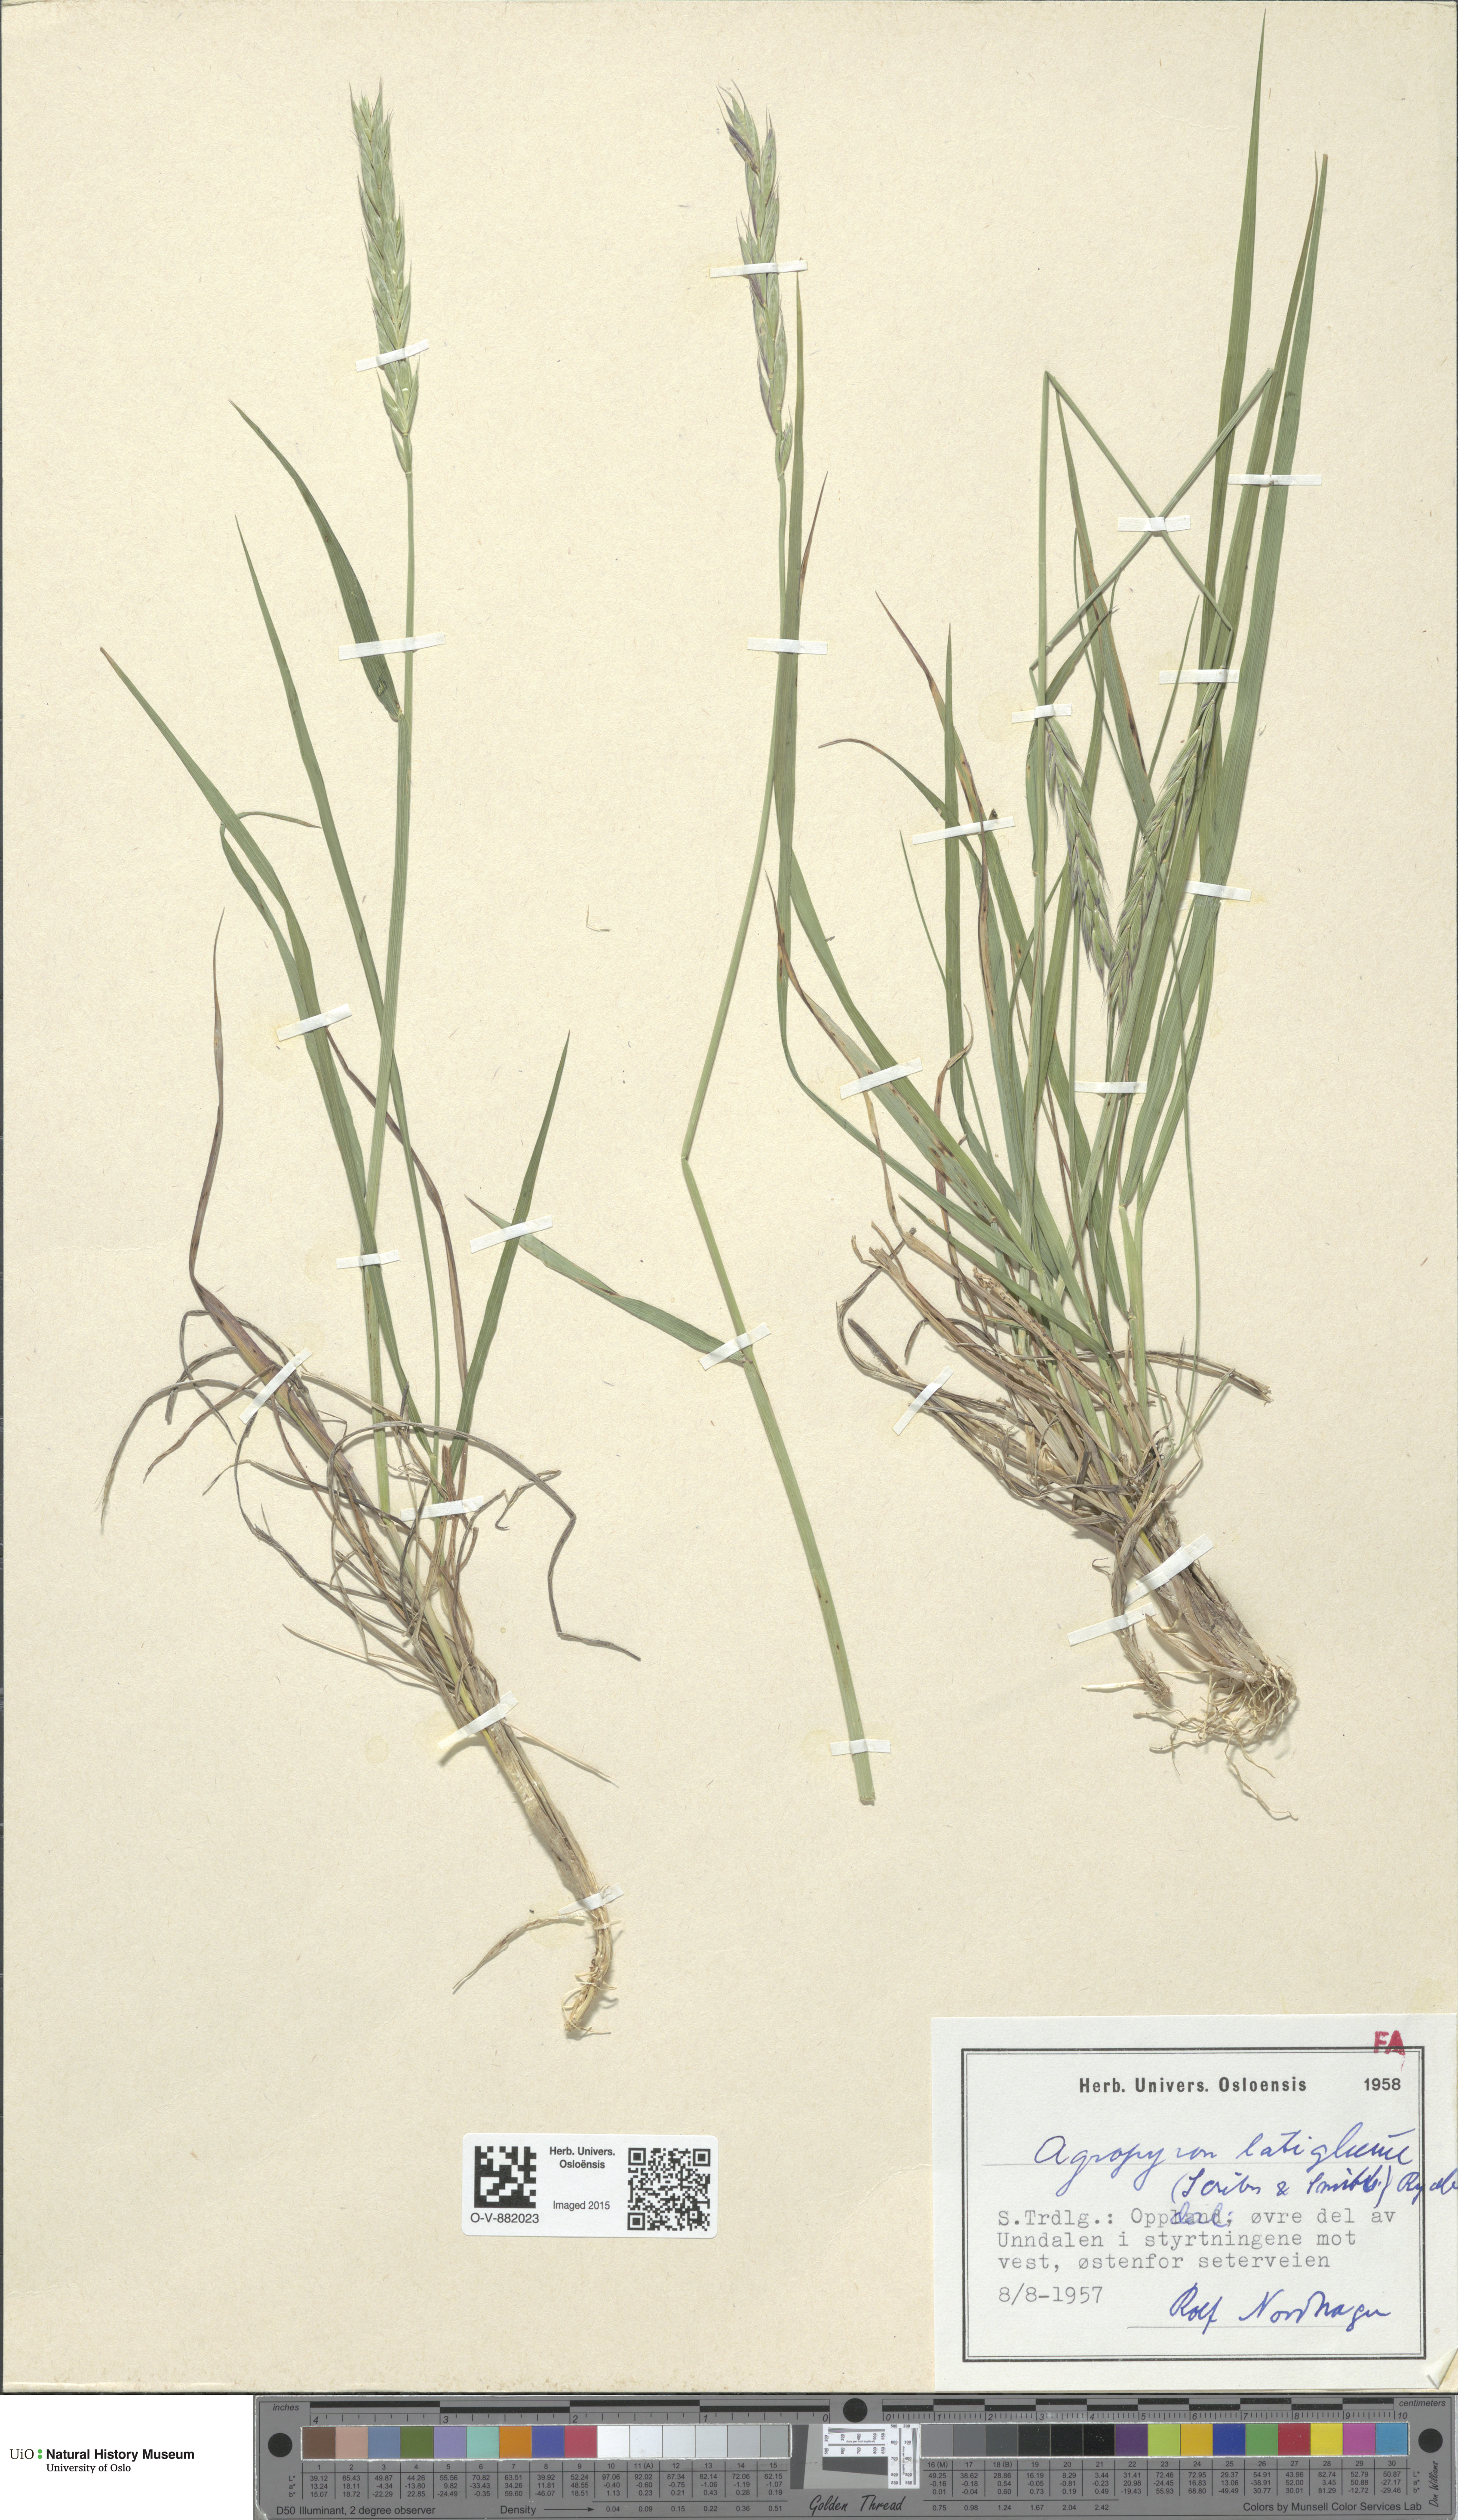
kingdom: Plantae
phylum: Tracheophyta
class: Liliopsida
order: Poales
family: Poaceae
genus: Elymus
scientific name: Elymus macrourus
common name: Northern wheatgrass
